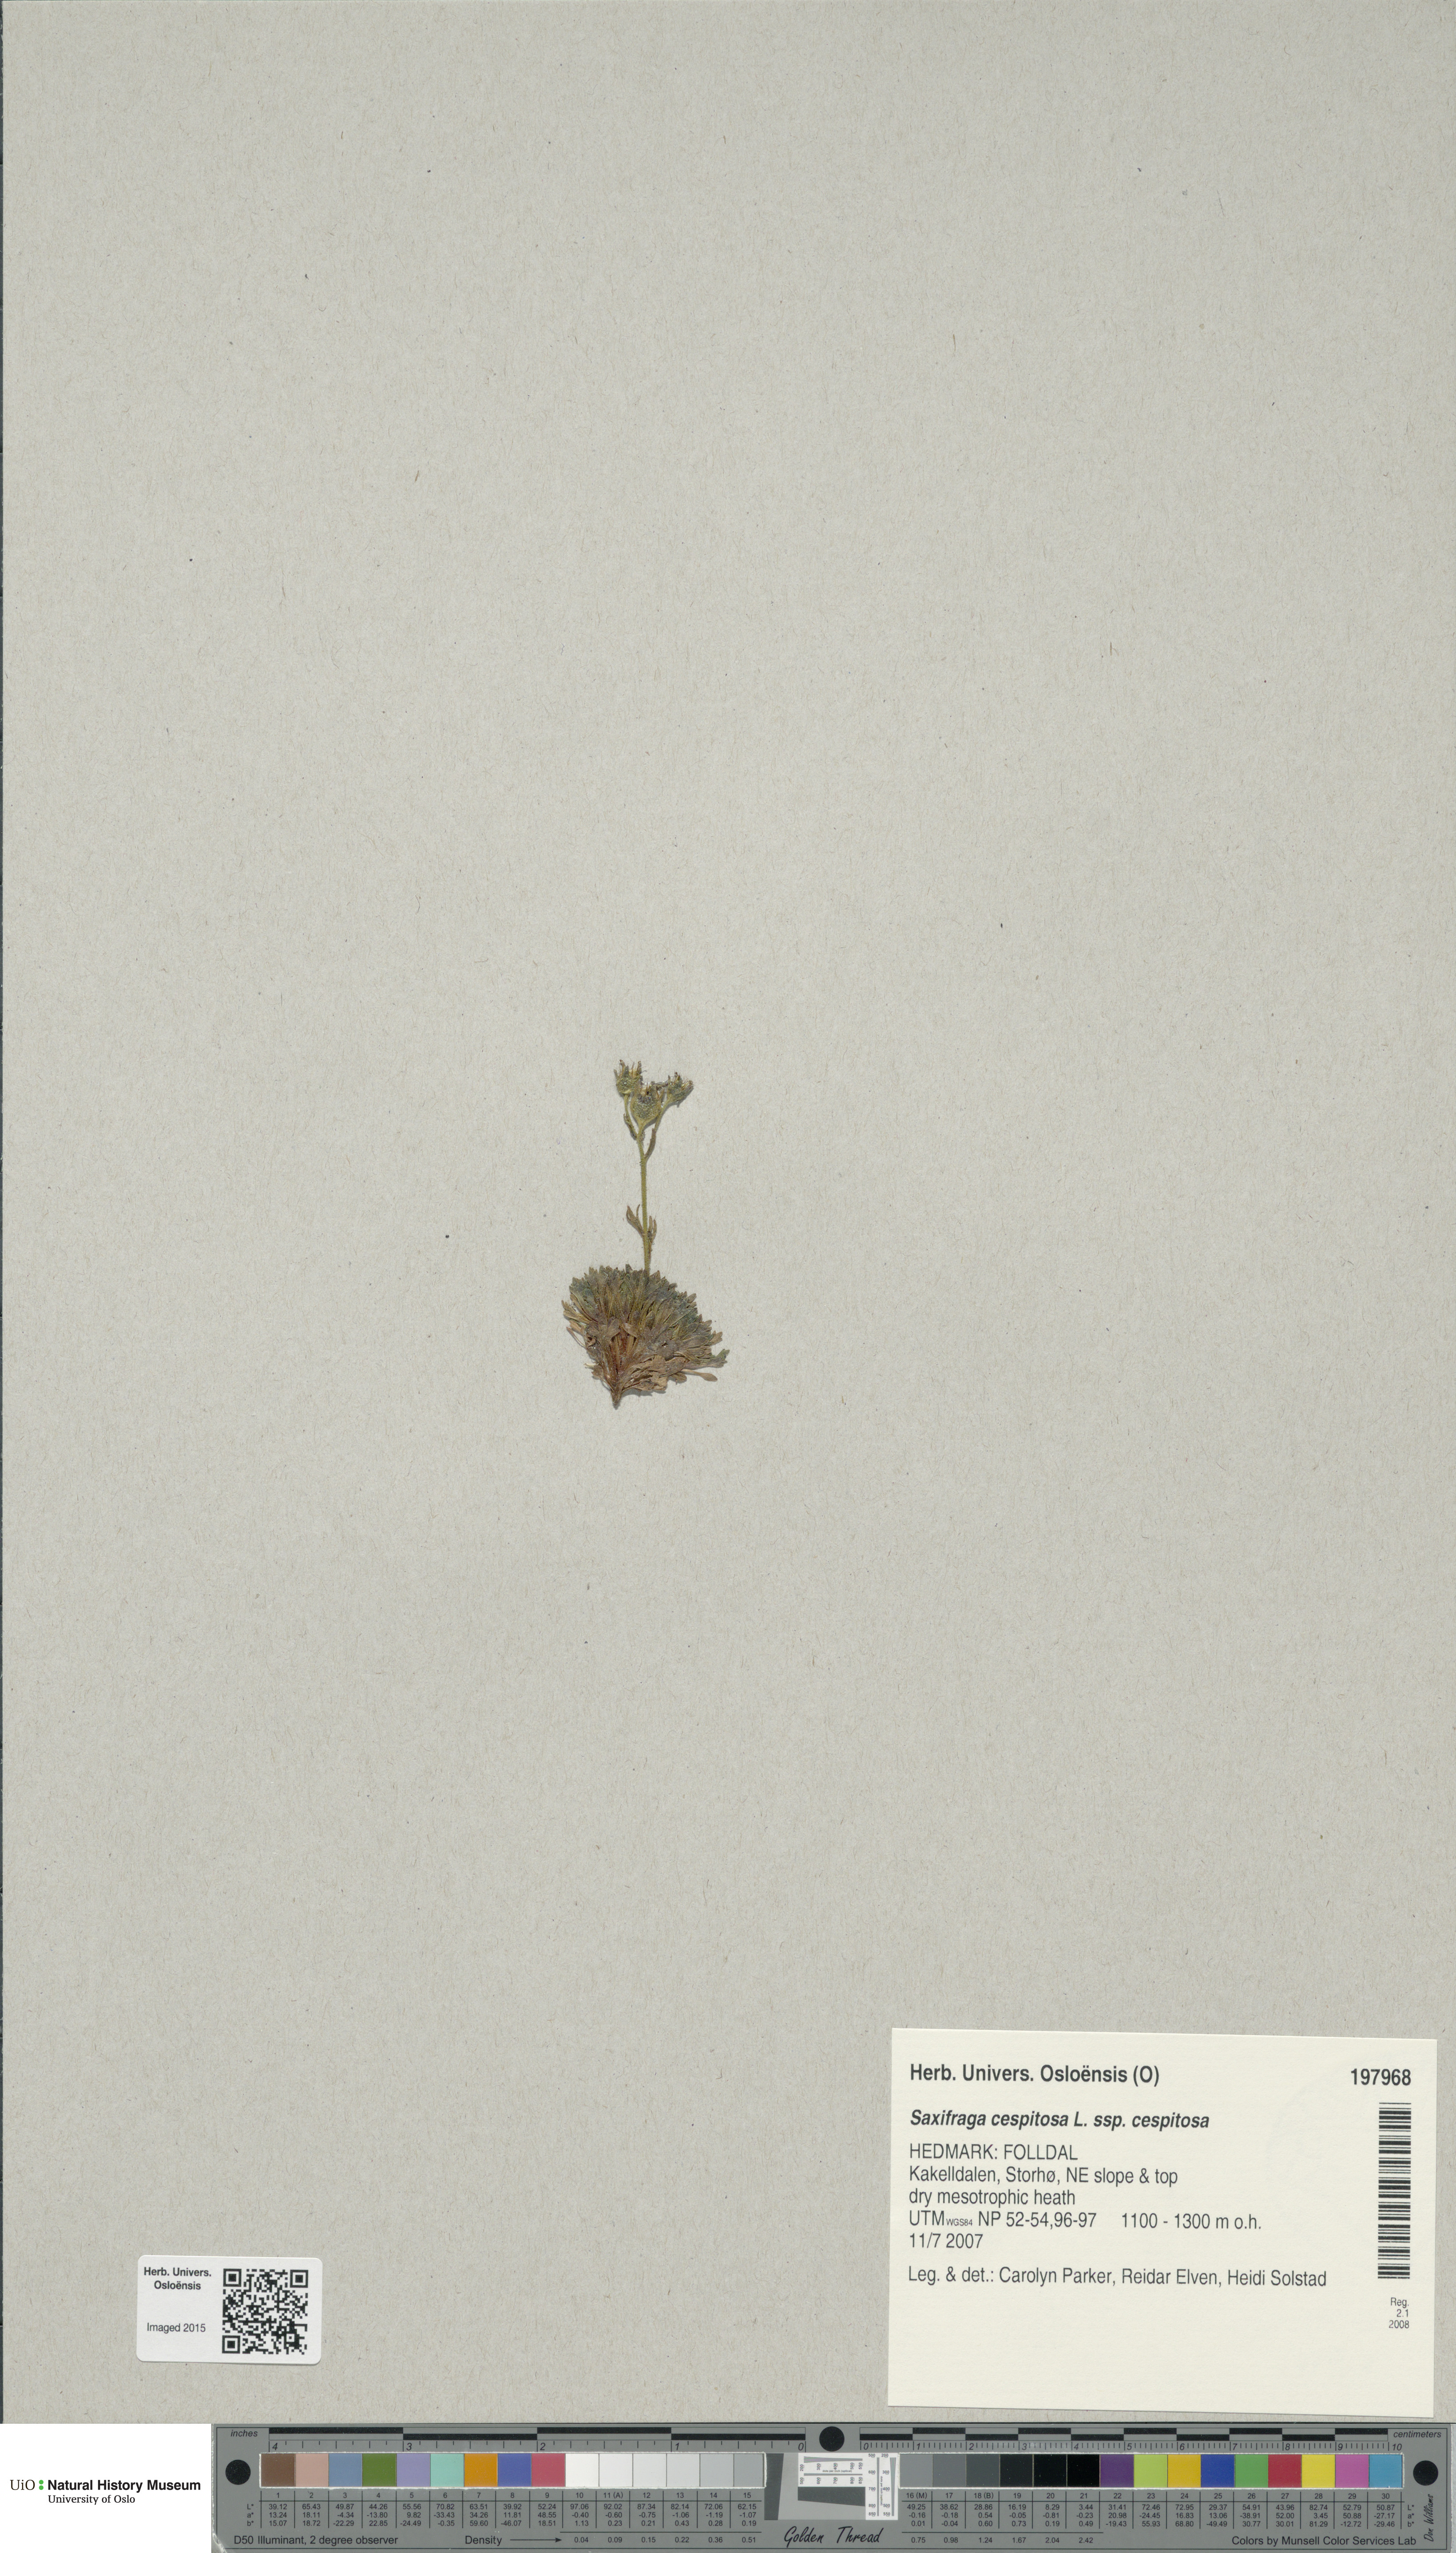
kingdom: Plantae
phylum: Tracheophyta
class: Magnoliopsida
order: Saxifragales
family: Saxifragaceae
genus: Saxifraga
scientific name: Saxifraga cespitosa
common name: Tufted saxifrage
